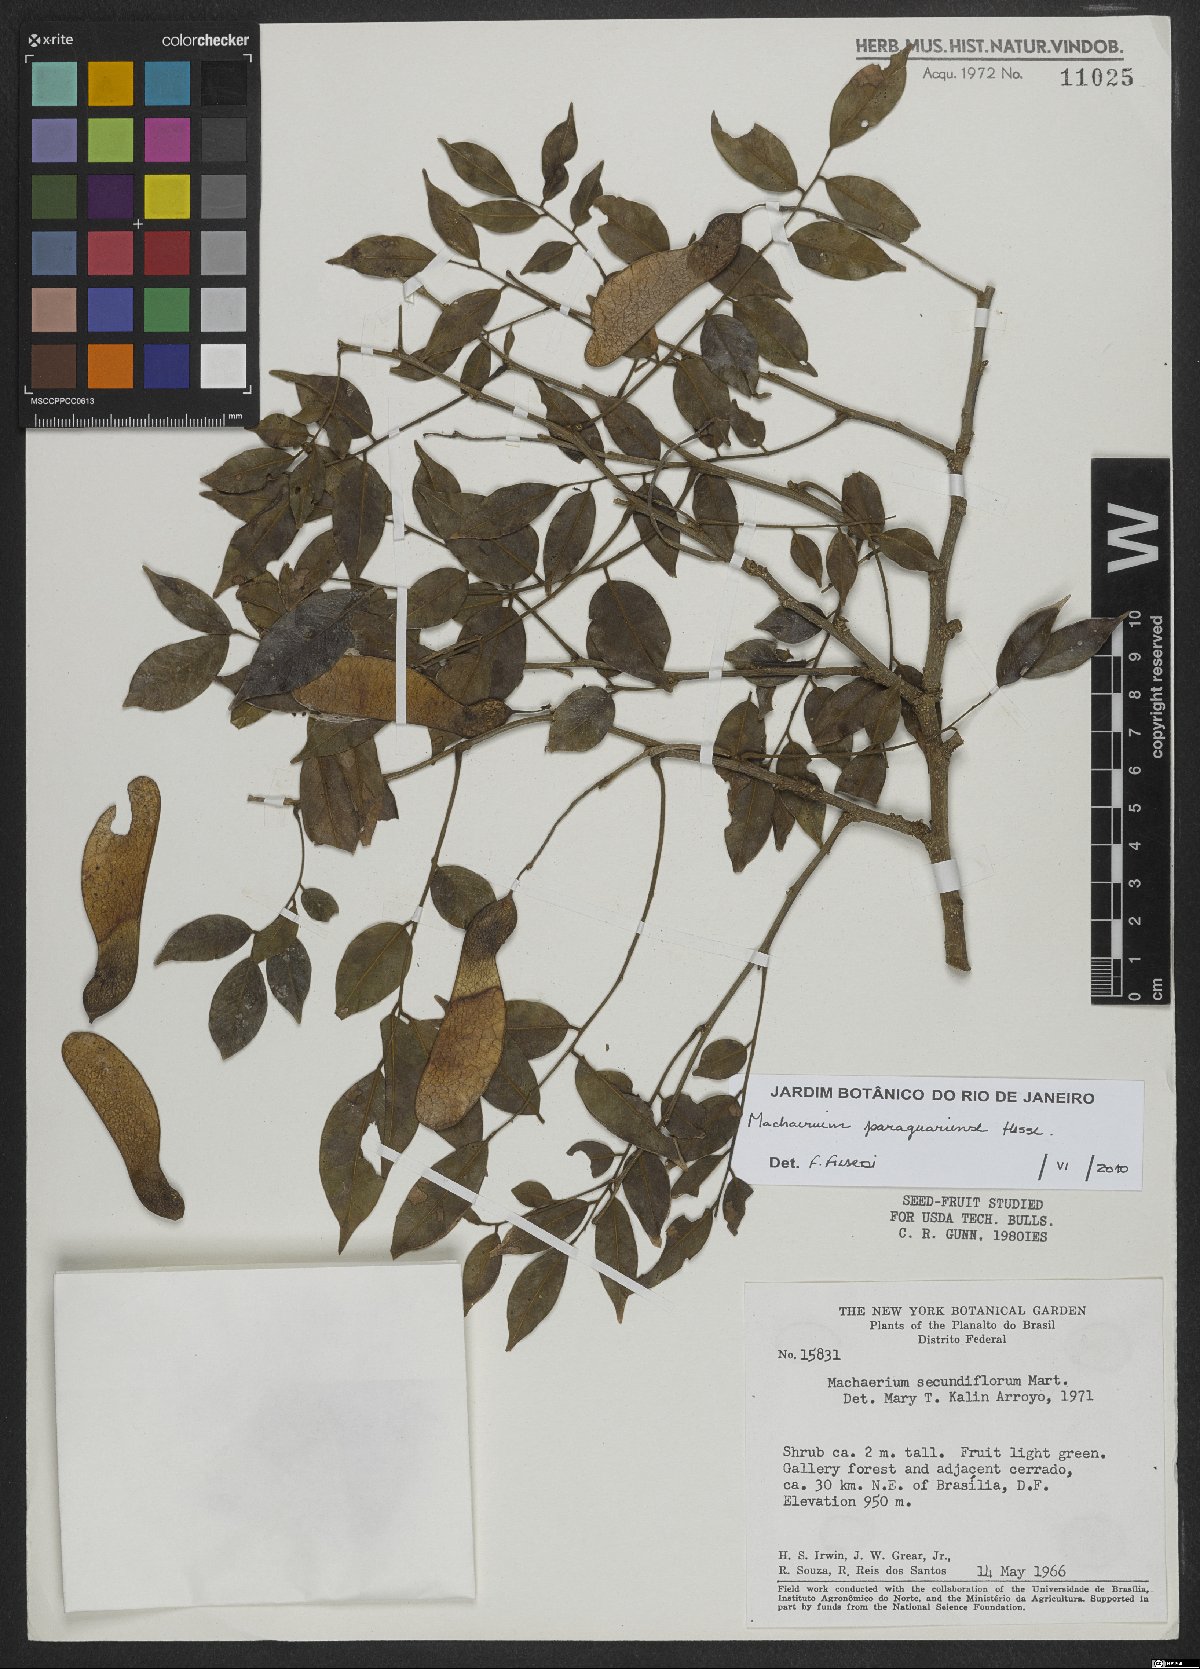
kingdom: Plantae
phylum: Tracheophyta
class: Magnoliopsida
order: Fabales
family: Fabaceae
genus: Machaerium
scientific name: Machaerium oblongifolium
